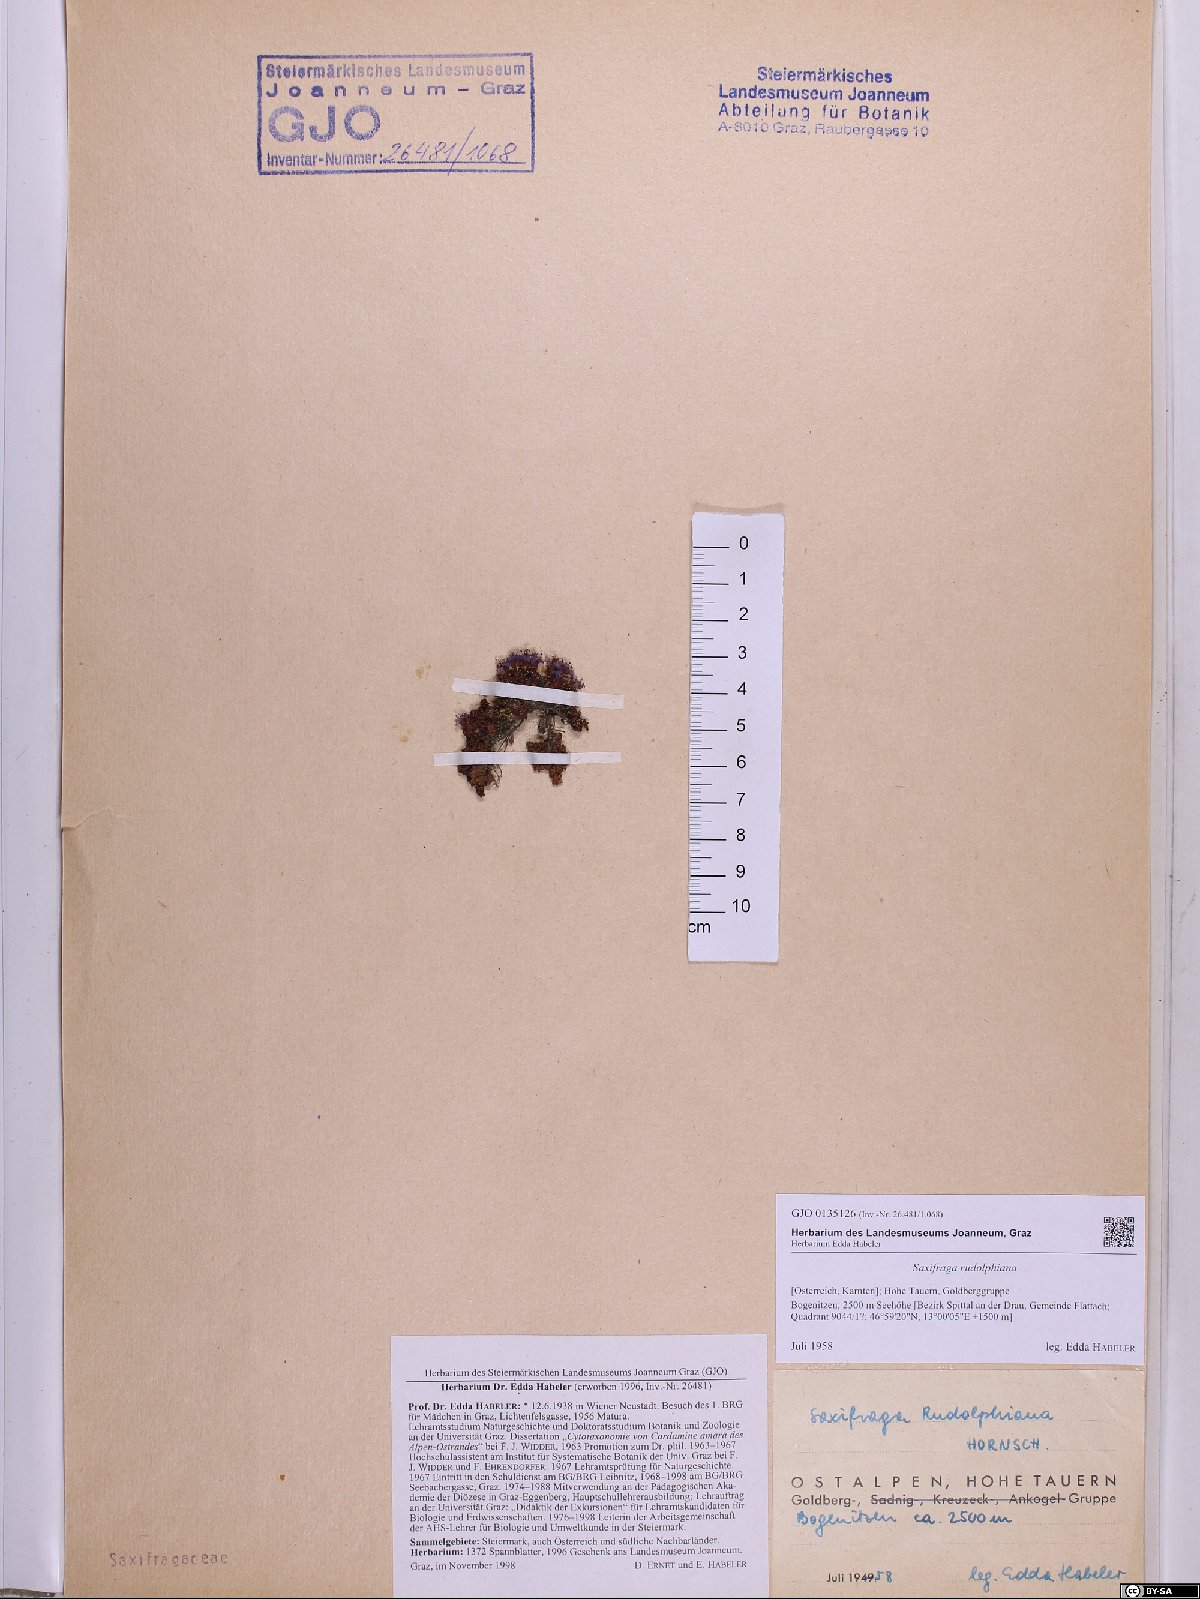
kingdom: Plantae
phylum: Tracheophyta
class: Magnoliopsida
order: Saxifragales
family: Saxifragaceae
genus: Saxifraga
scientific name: Saxifraga oppositifolia
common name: Purple saxifrage
